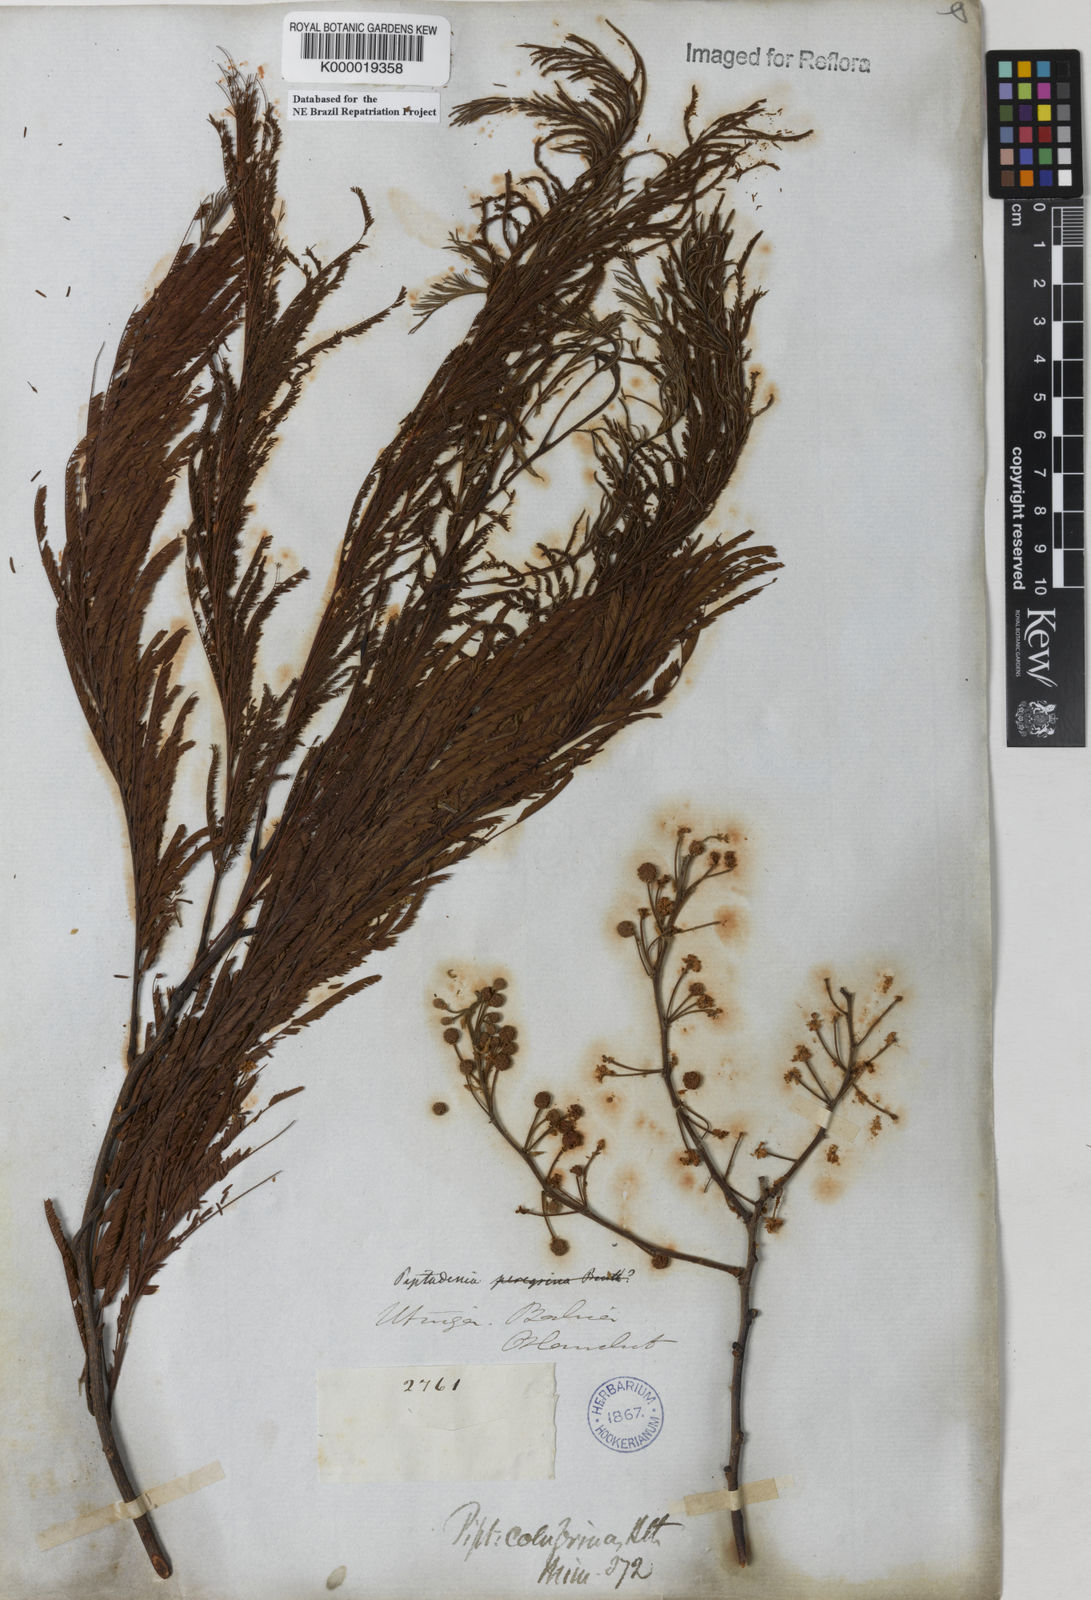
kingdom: Plantae
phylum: Tracheophyta
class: Magnoliopsida
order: Fabales
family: Fabaceae
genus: Anadenanthera
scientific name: Anadenanthera colubrina
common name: Curupay
